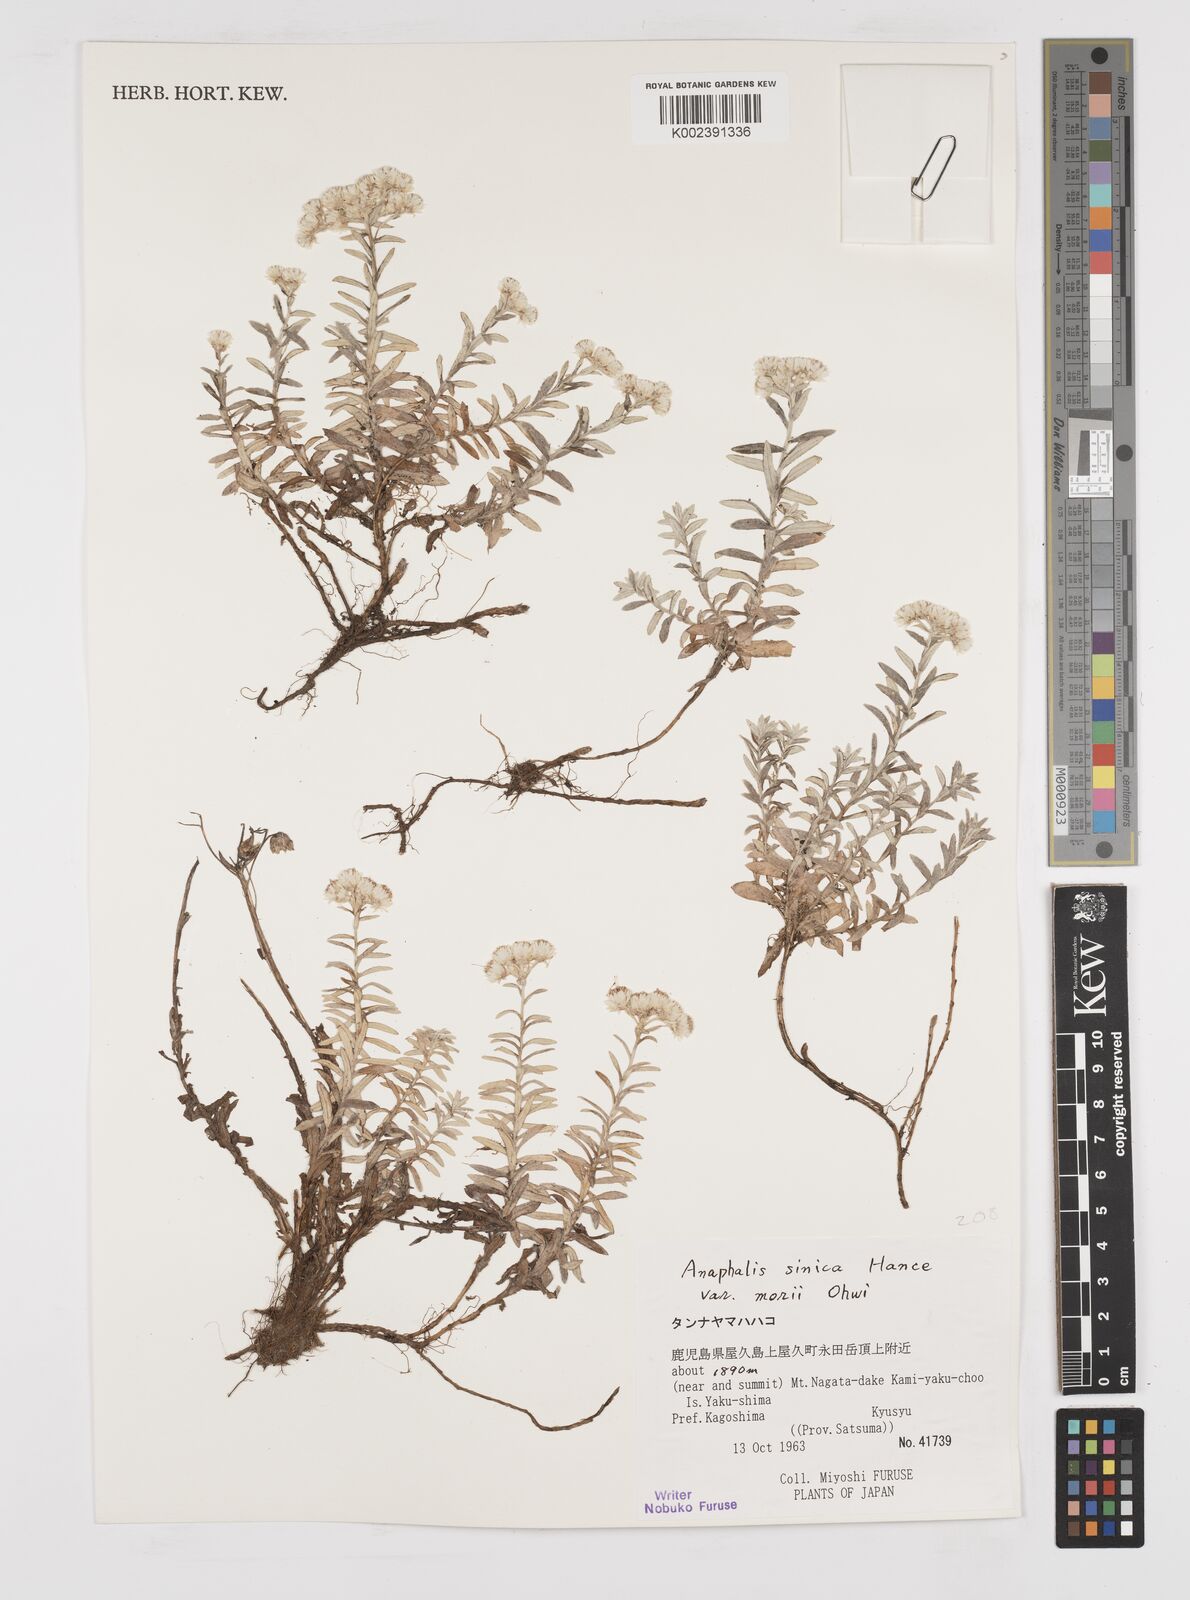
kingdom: Plantae
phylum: Tracheophyta
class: Magnoliopsida
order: Asterales
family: Asteraceae
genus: Anaphalis
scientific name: Anaphalis sinica
